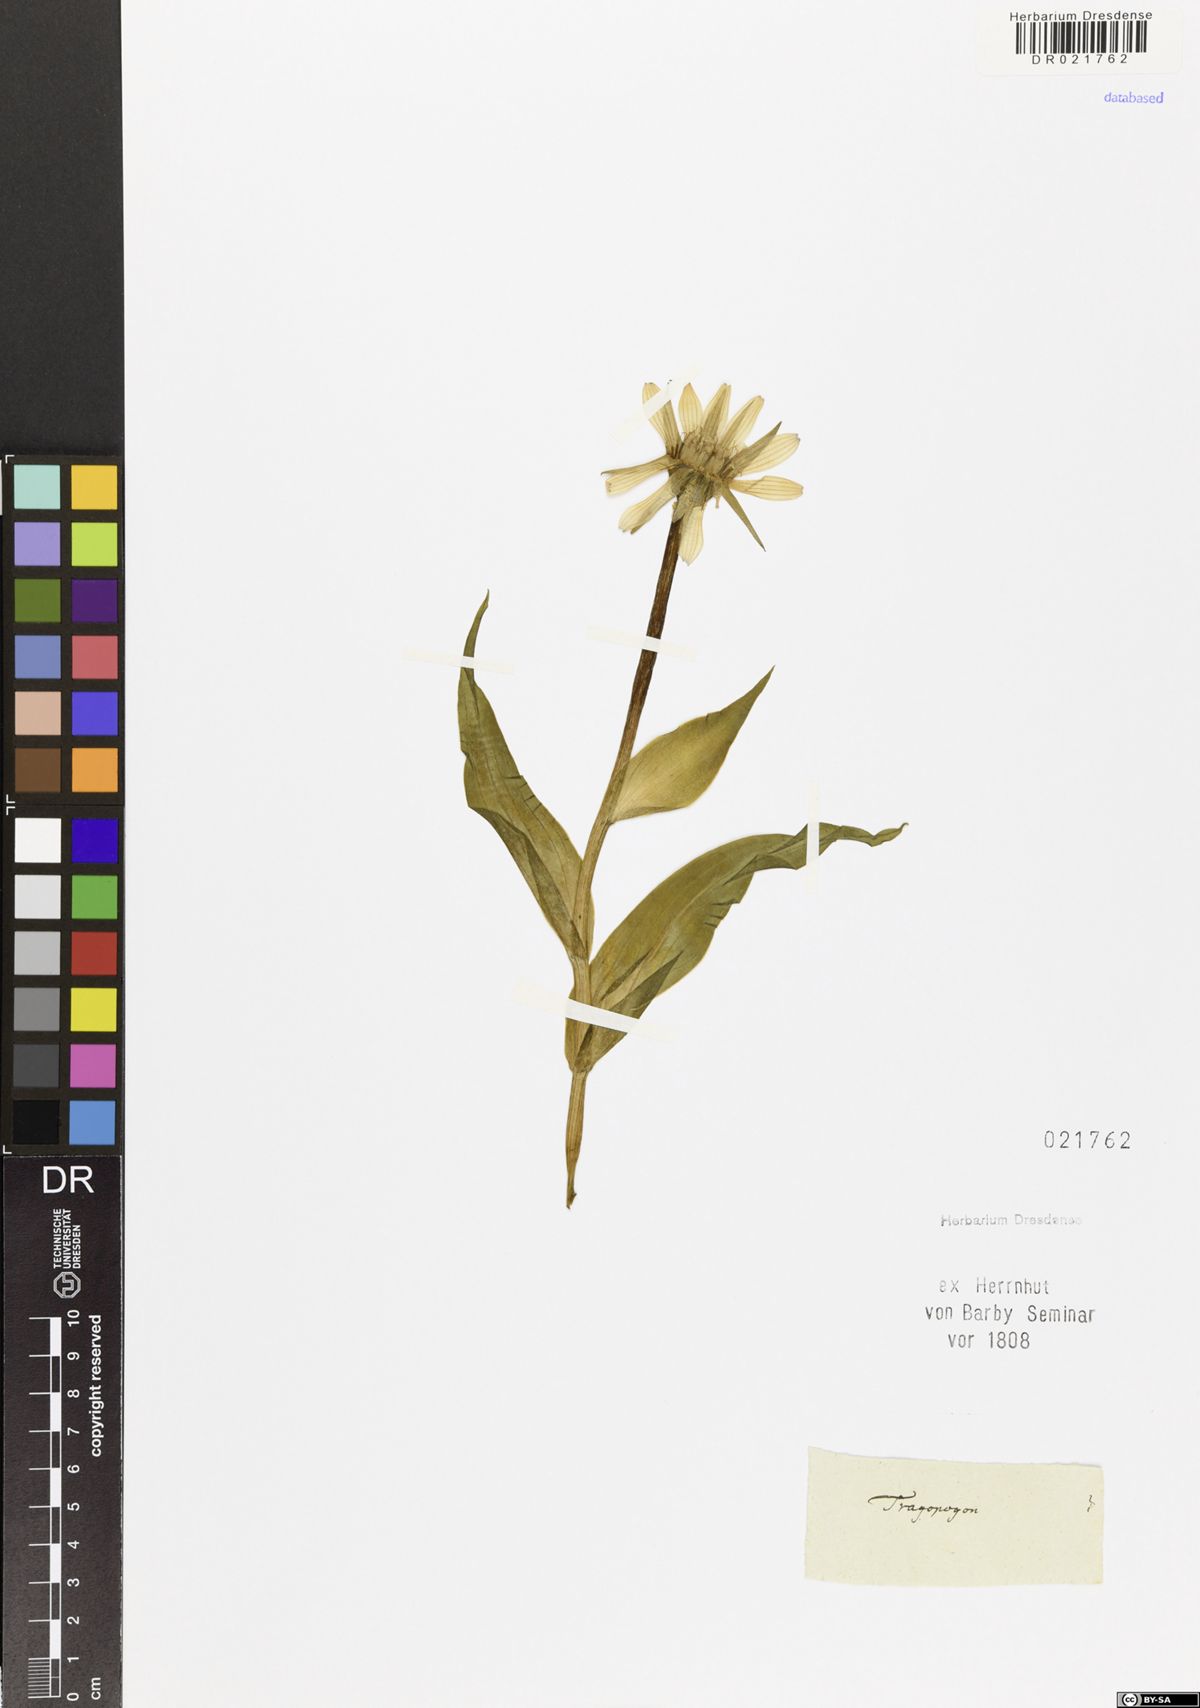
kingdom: Plantae
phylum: Tracheophyta
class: Magnoliopsida
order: Asterales
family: Asteraceae
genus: Tragopogon
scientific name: Tragopogon
